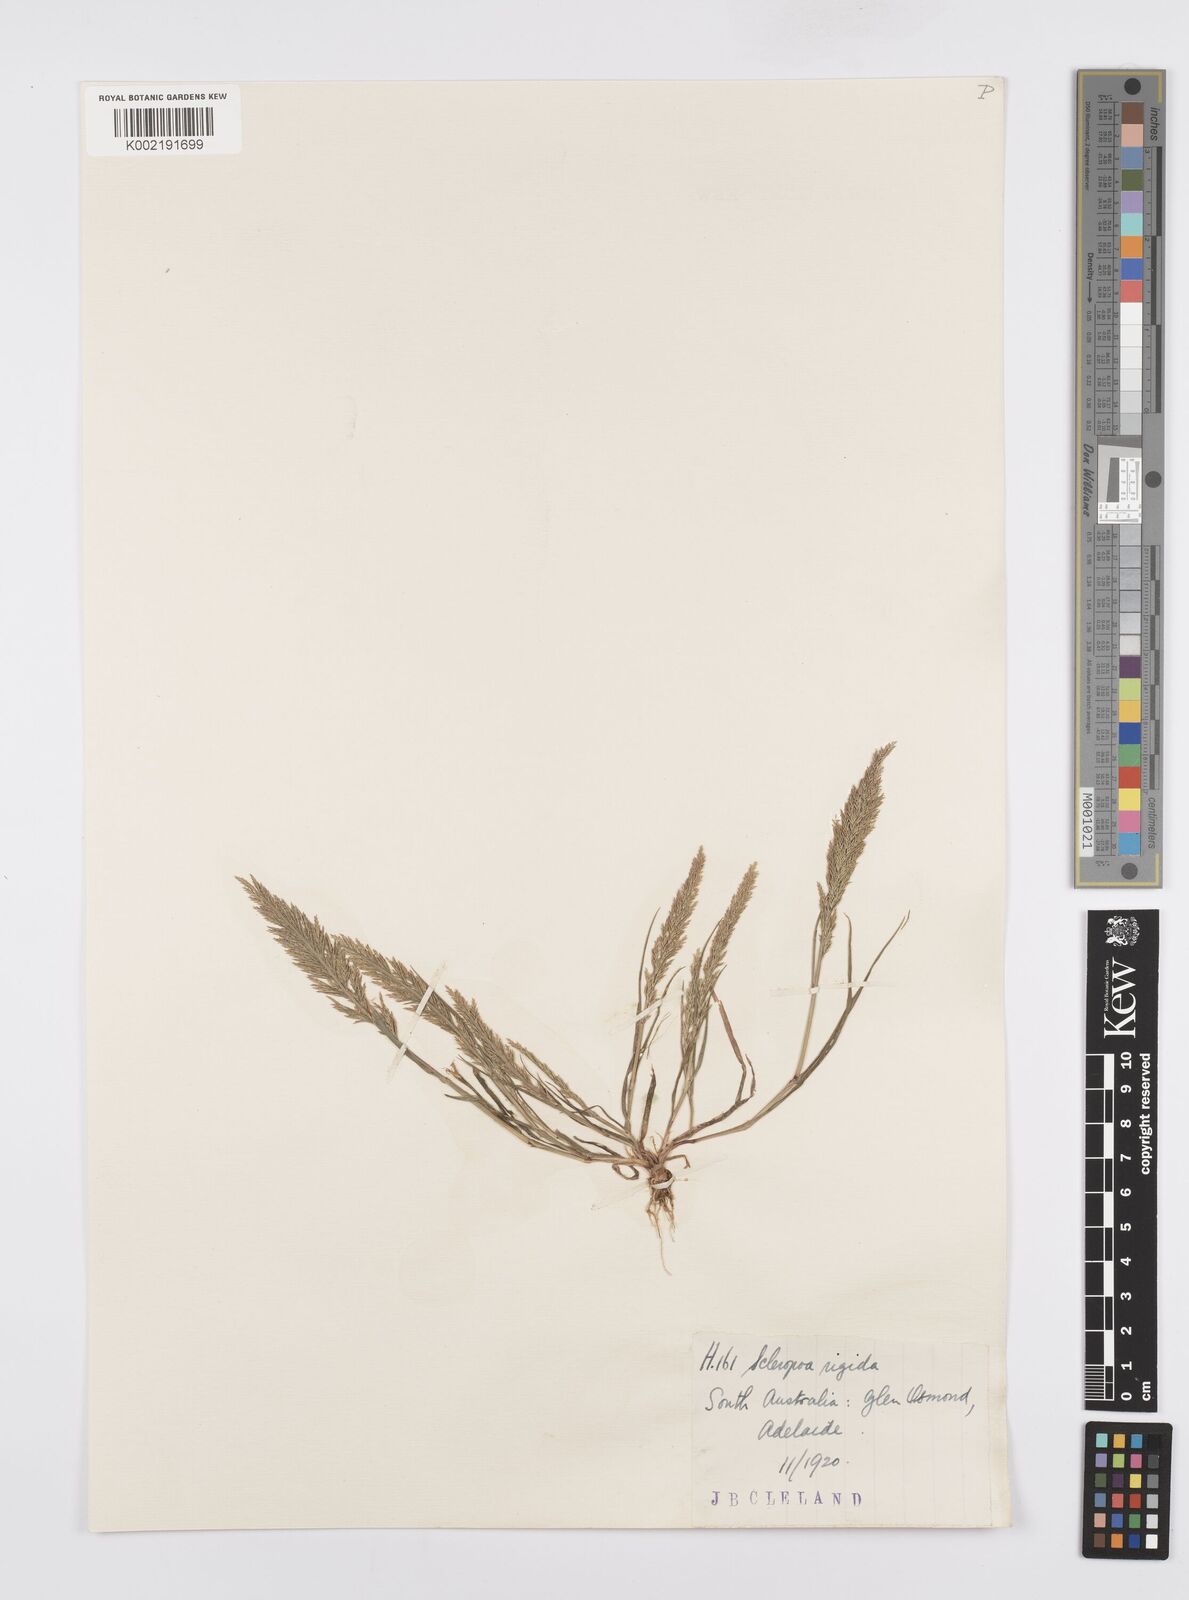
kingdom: Plantae
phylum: Tracheophyta
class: Liliopsida
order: Poales
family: Poaceae
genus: Catapodium
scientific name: Catapodium rigidum
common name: Fern-grass
